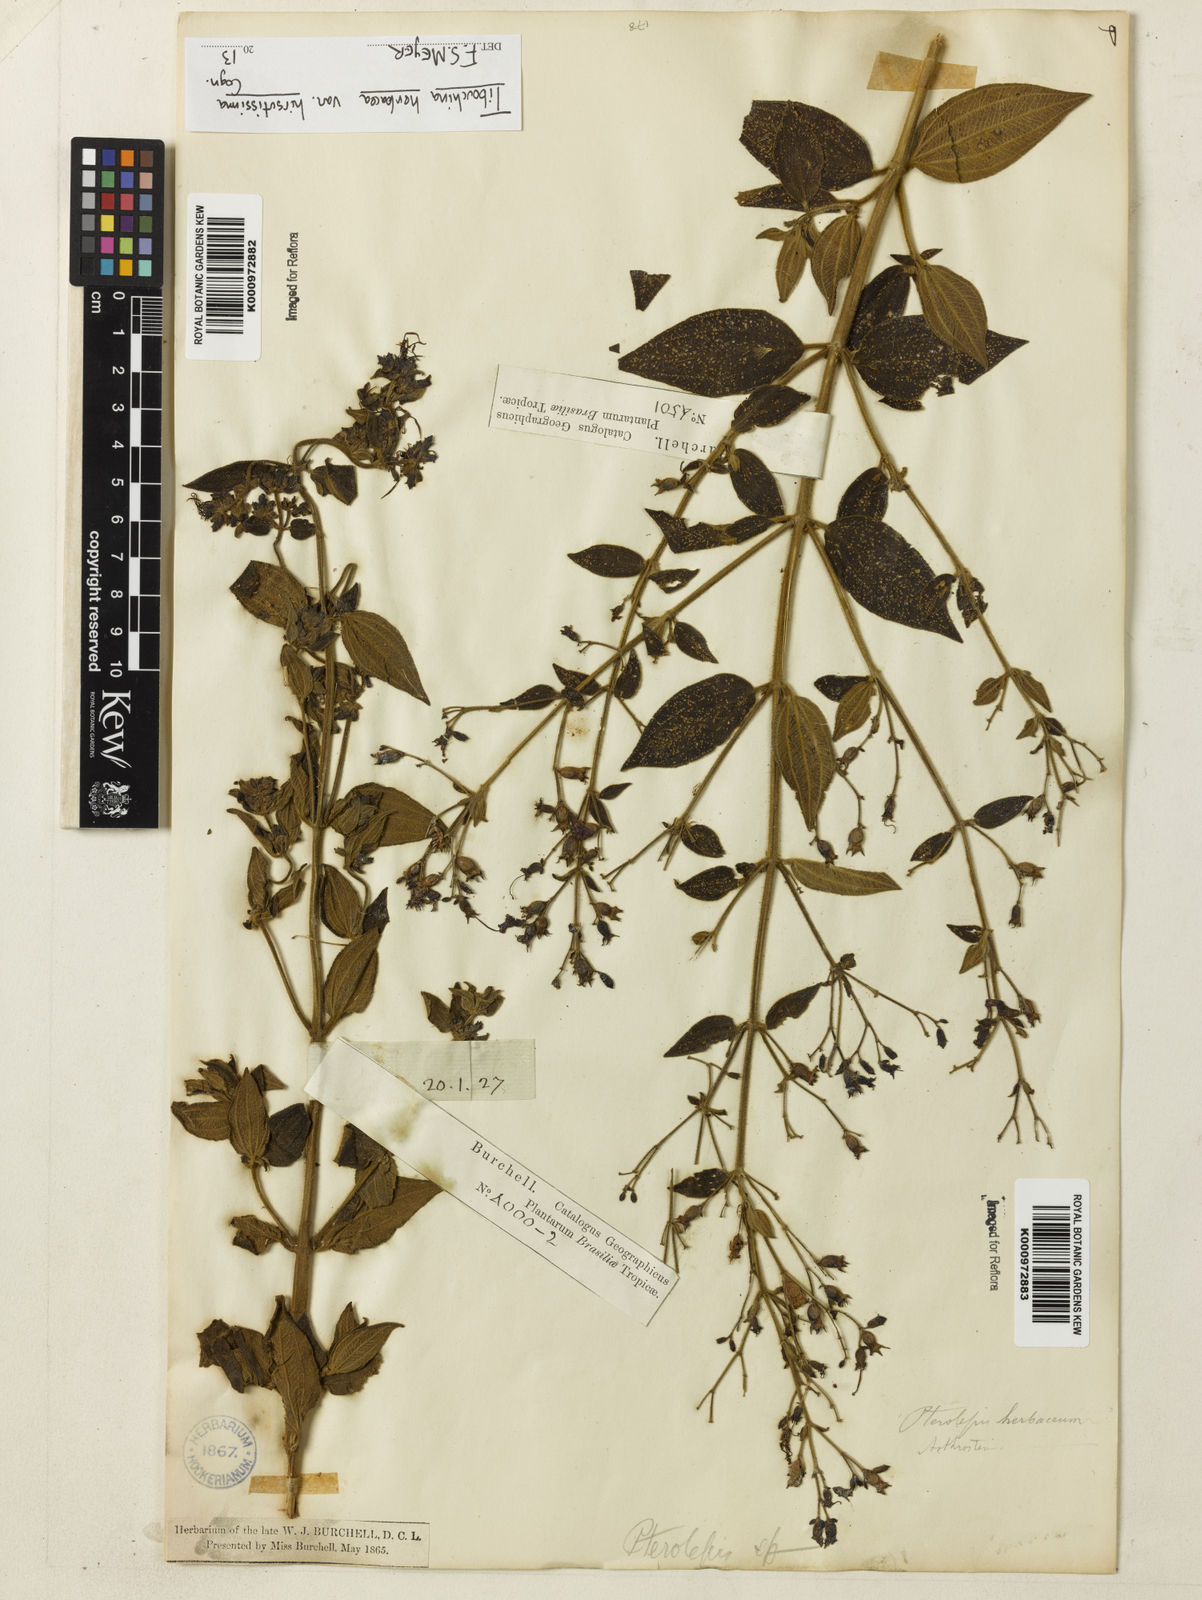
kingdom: Plantae
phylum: Tracheophyta
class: Magnoliopsida
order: Myrtales
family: Melastomataceae
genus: Chaetogastra
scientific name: Chaetogastra herbacea
